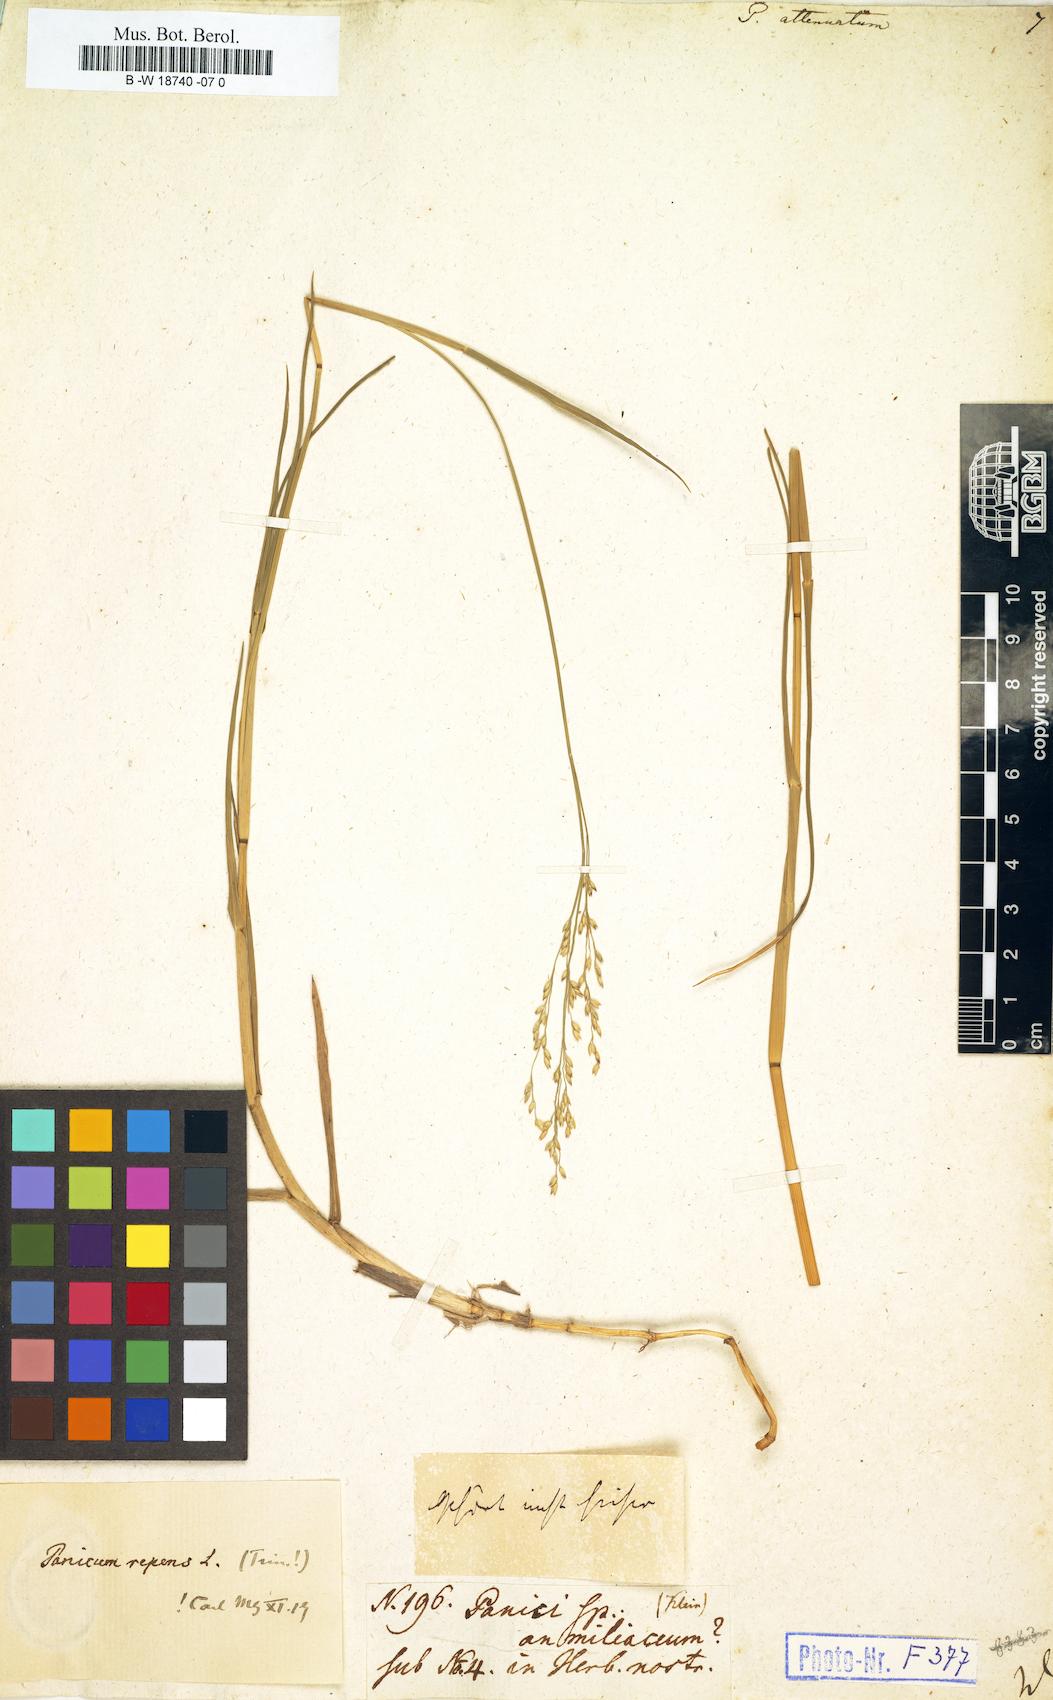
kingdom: Plantae
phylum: Tracheophyta
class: Liliopsida
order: Poales
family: Poaceae
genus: Panicum
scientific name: Panicum sumatrense
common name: Little millet
